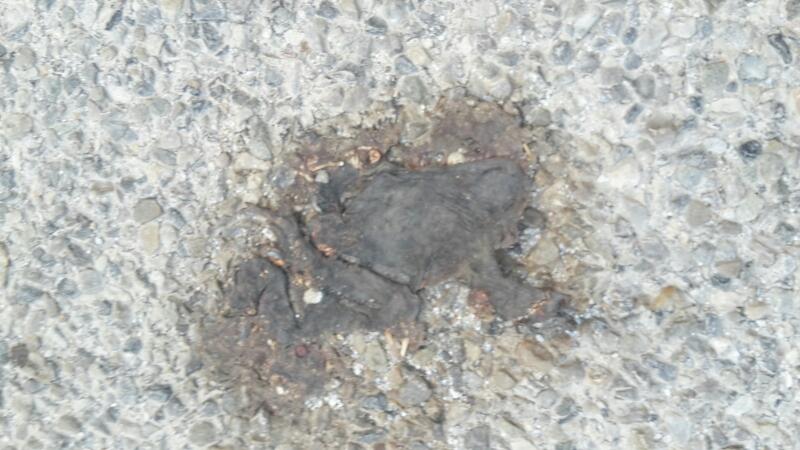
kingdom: Animalia
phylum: Chordata
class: Amphibia
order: Anura
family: Bufonidae
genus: Bufo
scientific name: Bufo bufo
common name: Common toad
